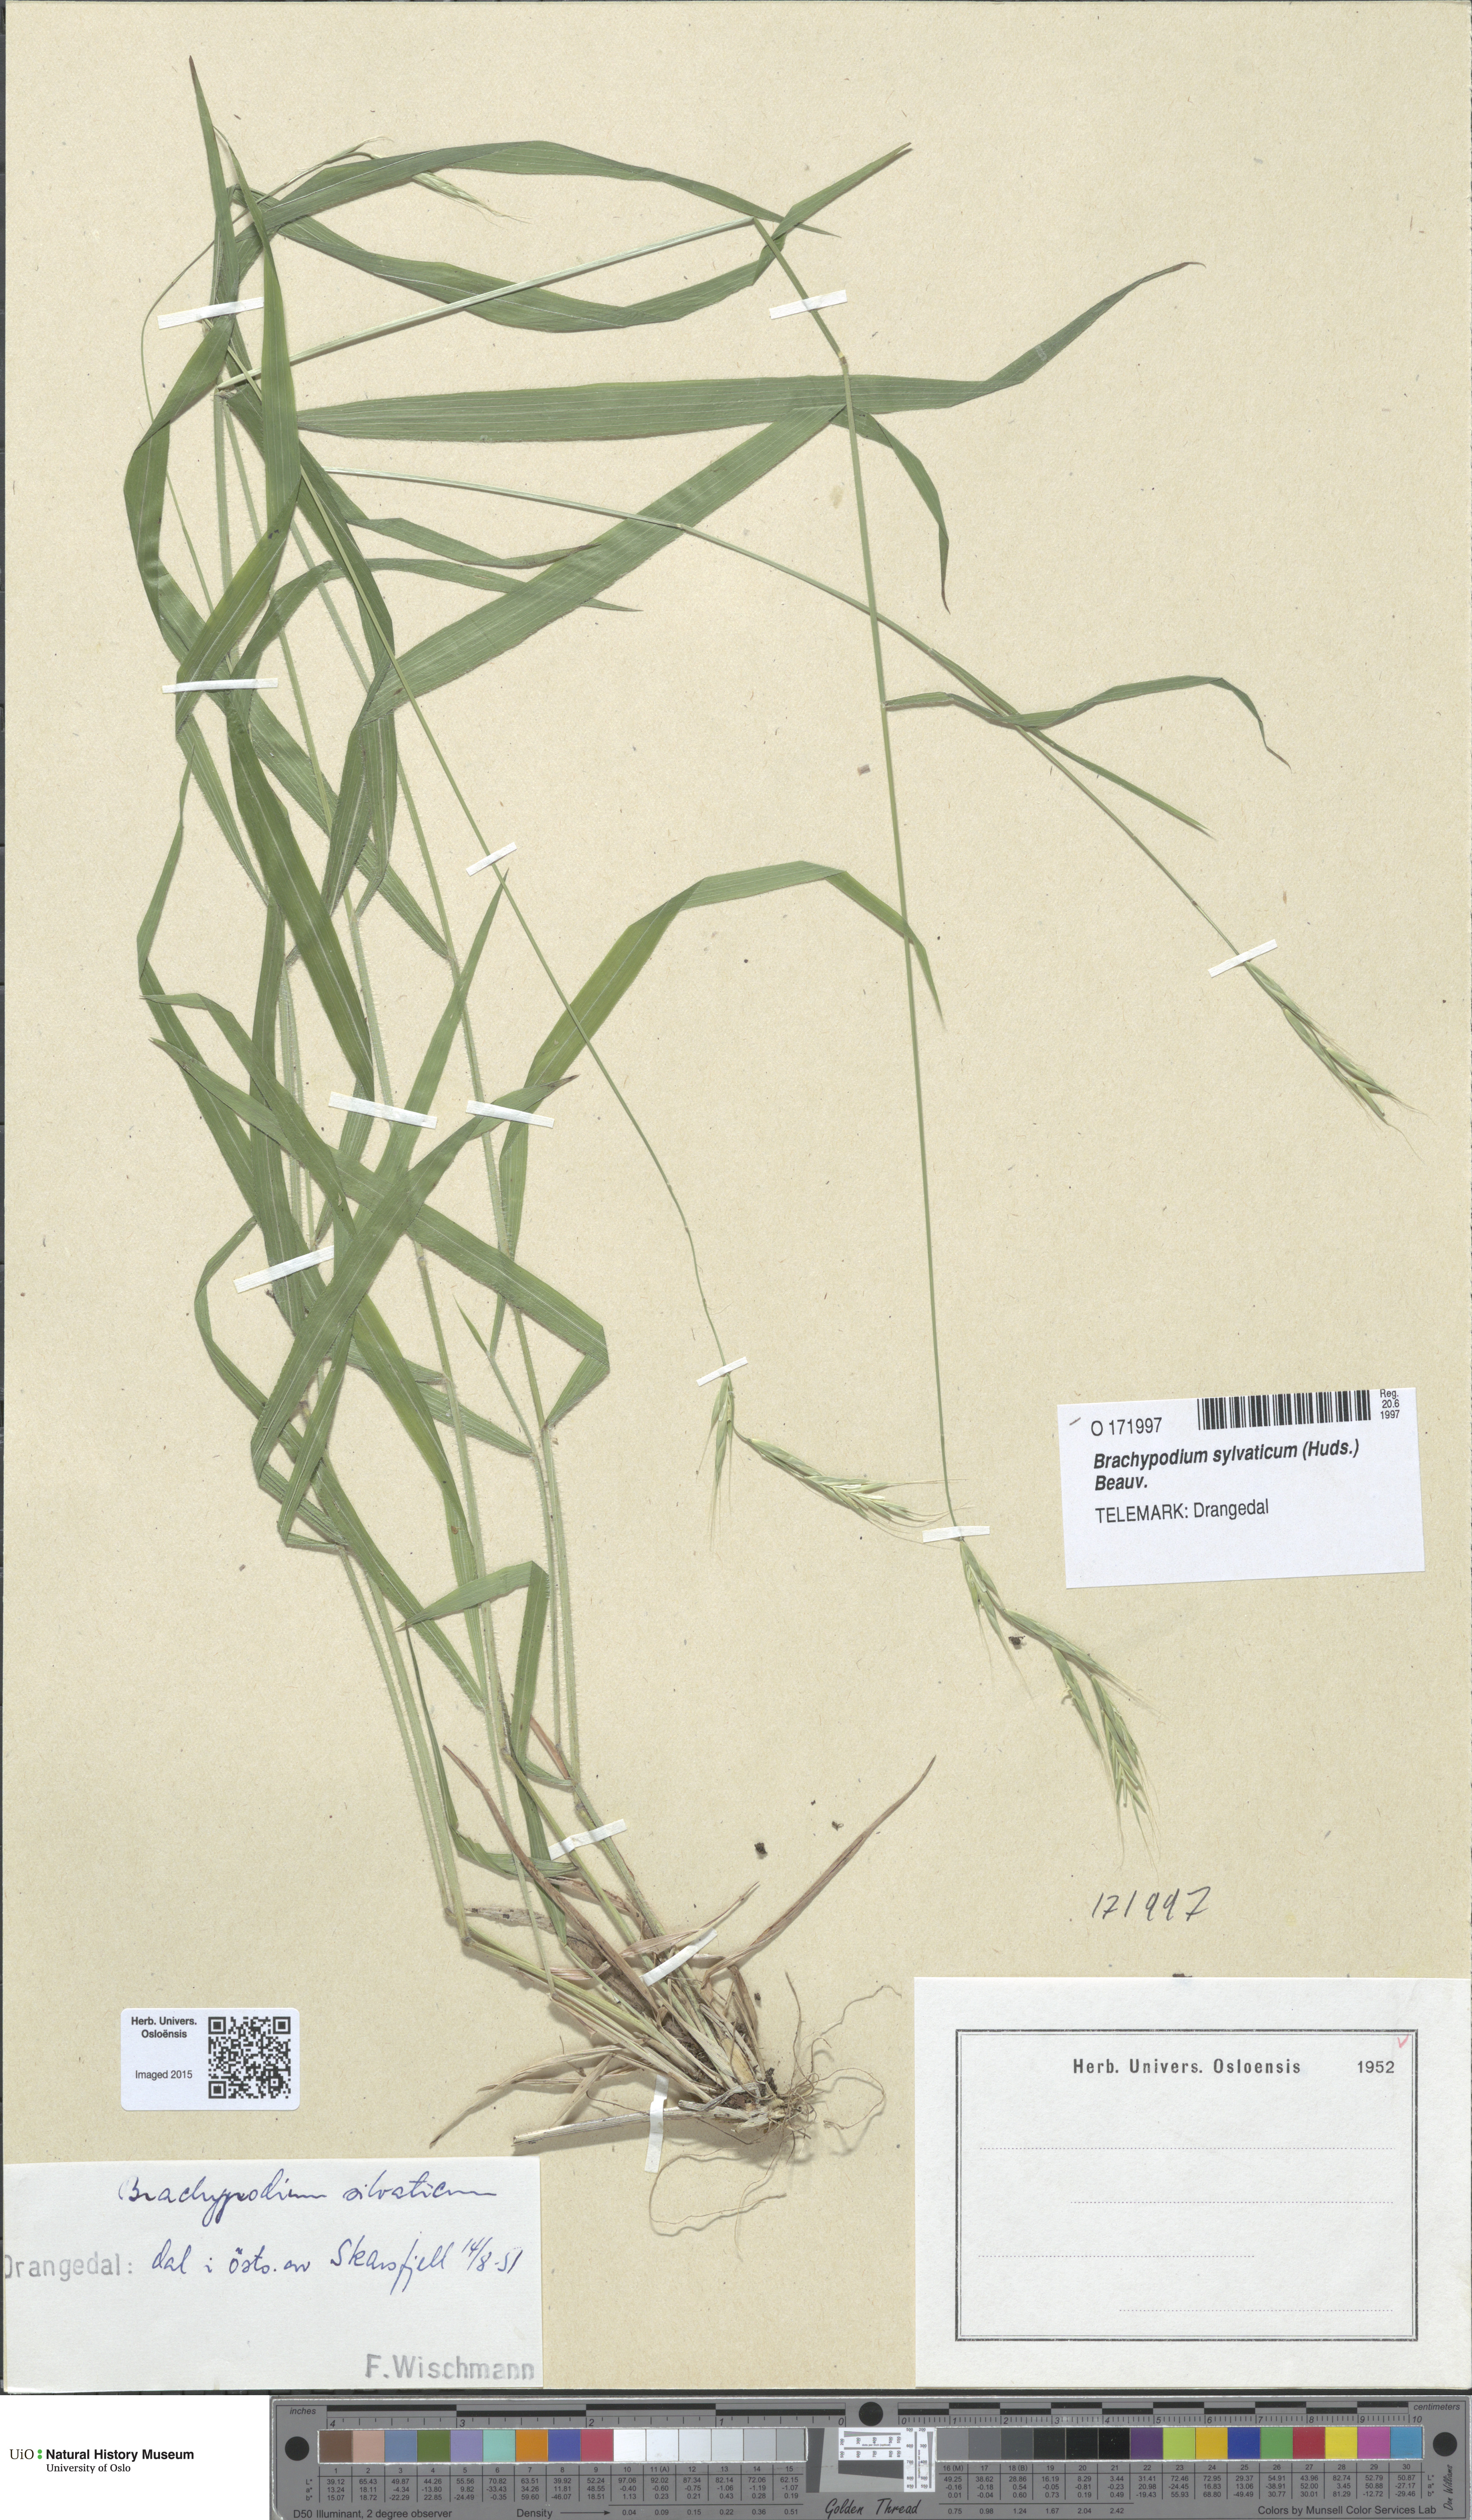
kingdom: Plantae
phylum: Tracheophyta
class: Liliopsida
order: Poales
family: Poaceae
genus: Brachypodium
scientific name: Brachypodium sylvaticum
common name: False-brome
